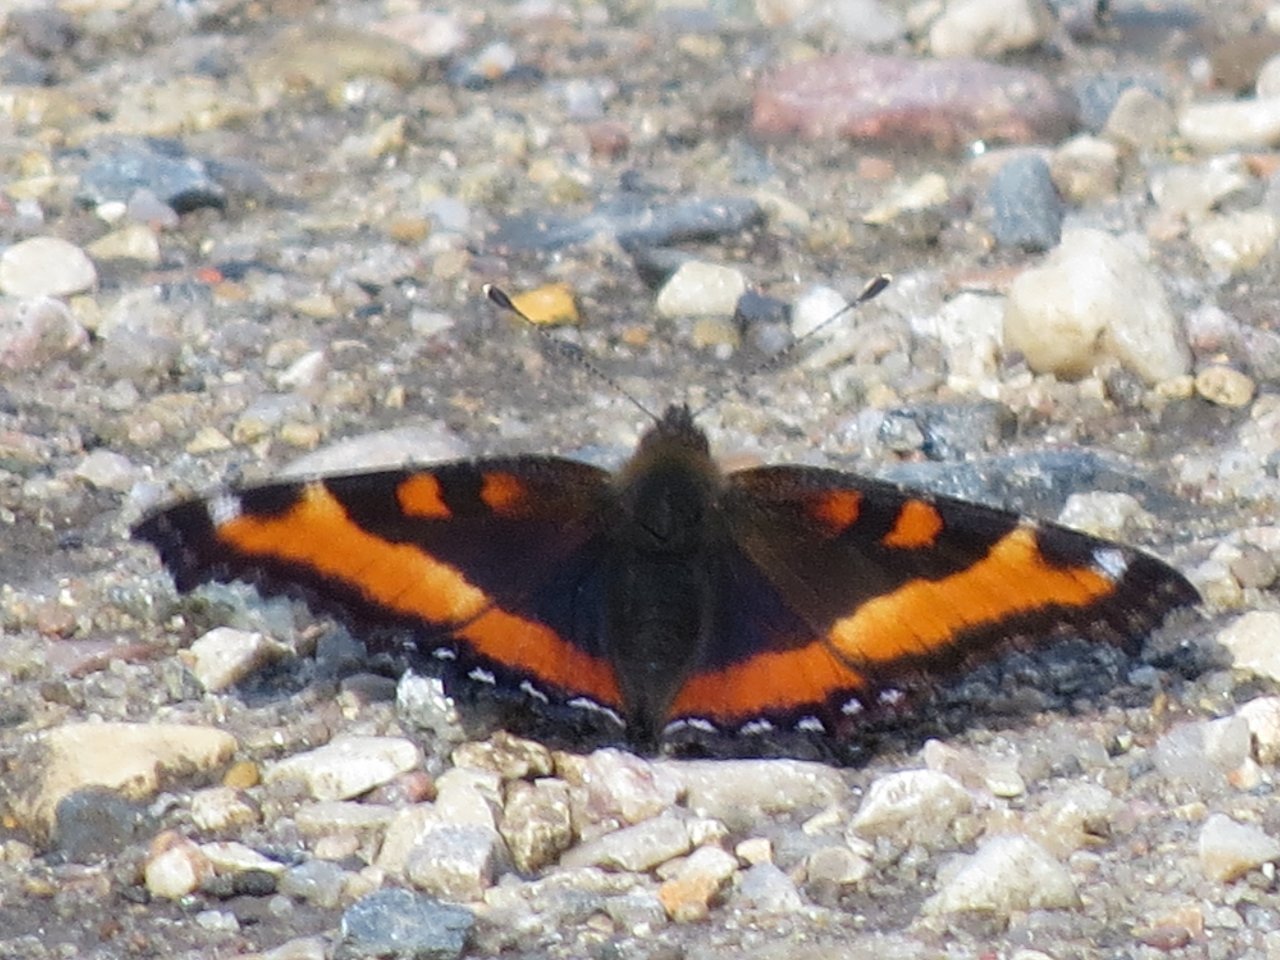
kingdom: Animalia
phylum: Arthropoda
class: Insecta
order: Lepidoptera
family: Nymphalidae
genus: Aglais
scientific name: Aglais milberti
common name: Milbert's Tortoiseshell
